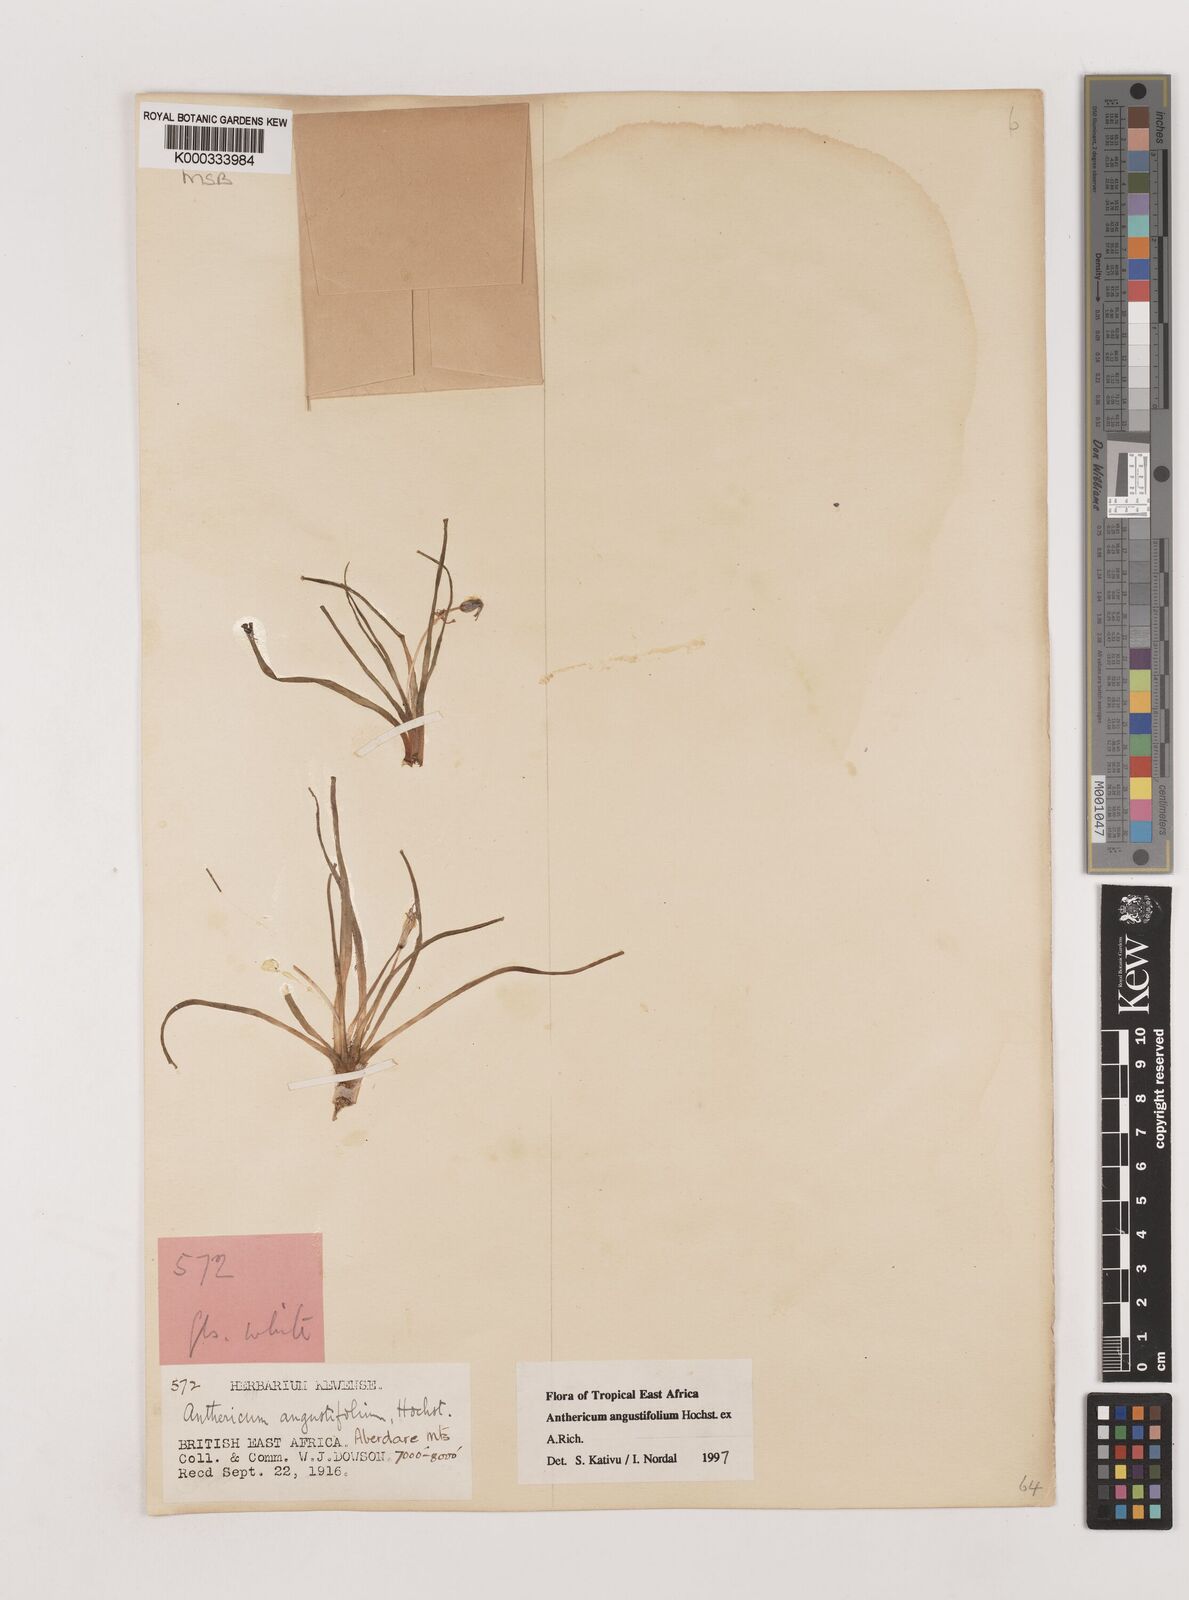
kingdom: Plantae
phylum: Tracheophyta
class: Liliopsida
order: Asparagales
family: Asparagaceae
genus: Anthericum
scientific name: Anthericum angustifolium
